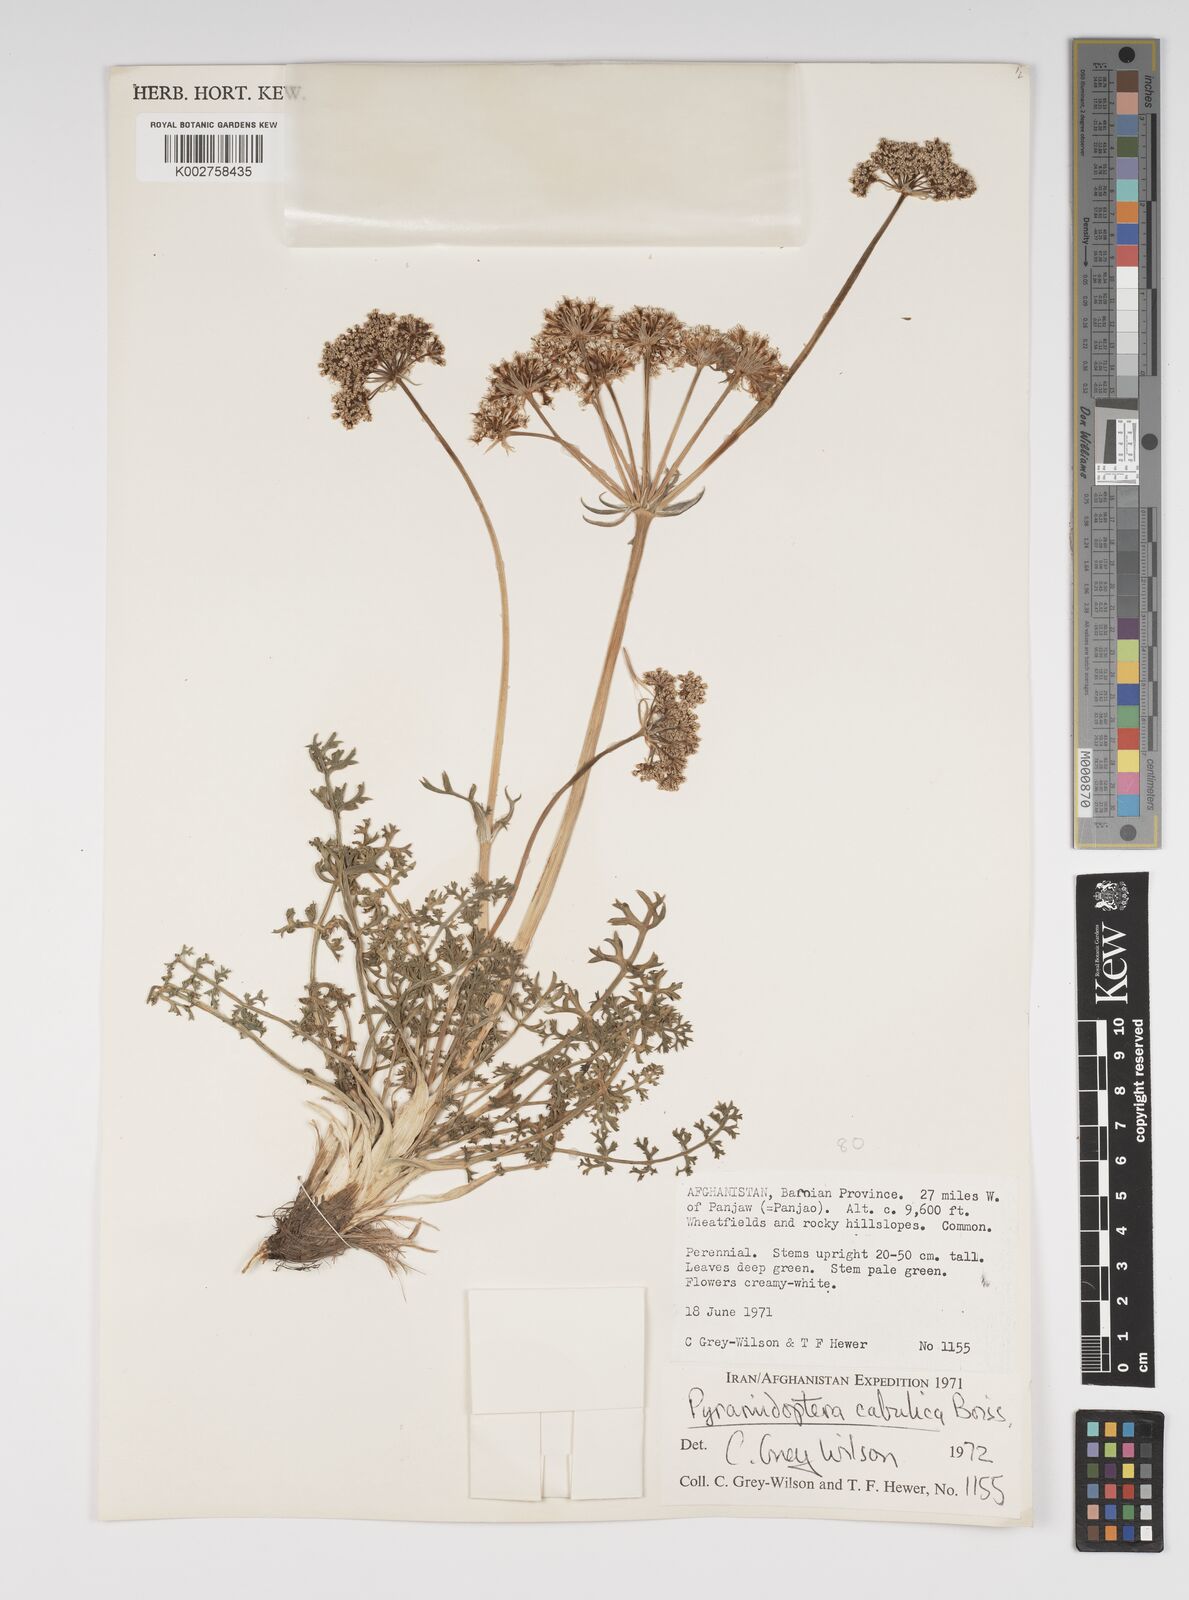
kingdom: Plantae
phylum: Tracheophyta
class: Magnoliopsida
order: Apiales
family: Apiaceae
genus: Pyramidoptera
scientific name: Pyramidoptera cabulica
